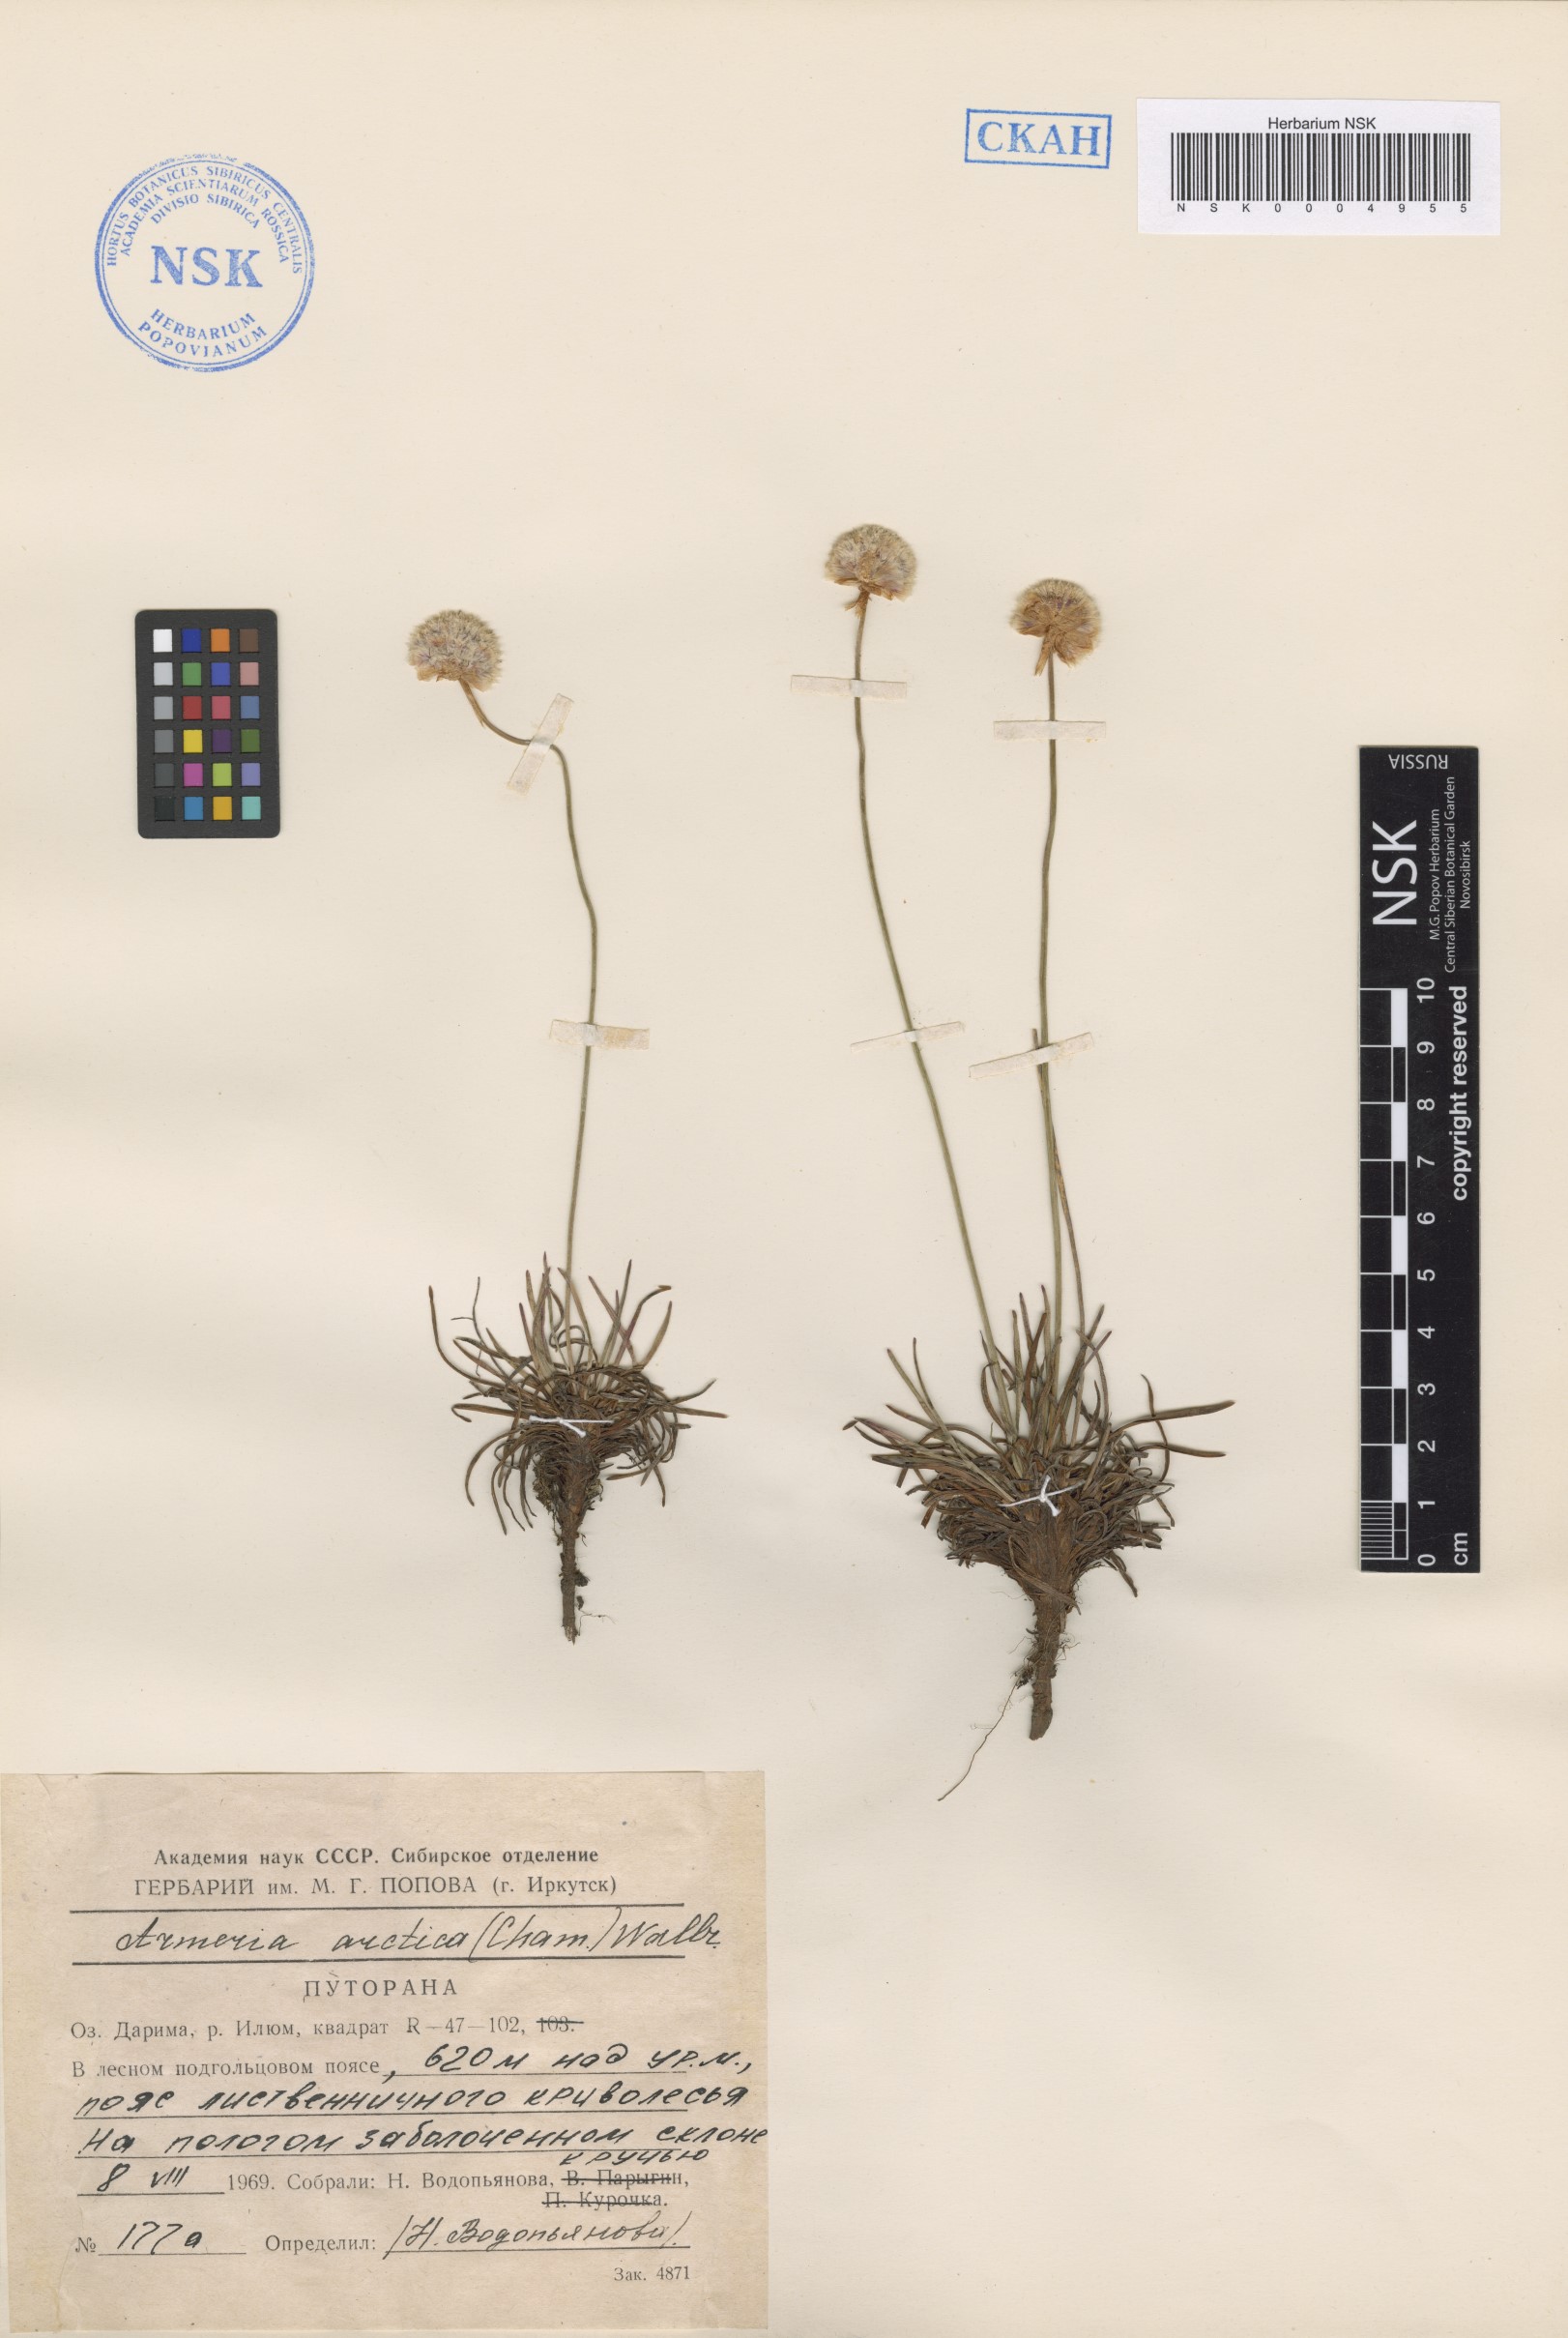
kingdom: Plantae
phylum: Tracheophyta
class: Magnoliopsida
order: Caryophyllales
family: Plumbaginaceae
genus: Armeria
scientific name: Armeria maritima
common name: Thrift
